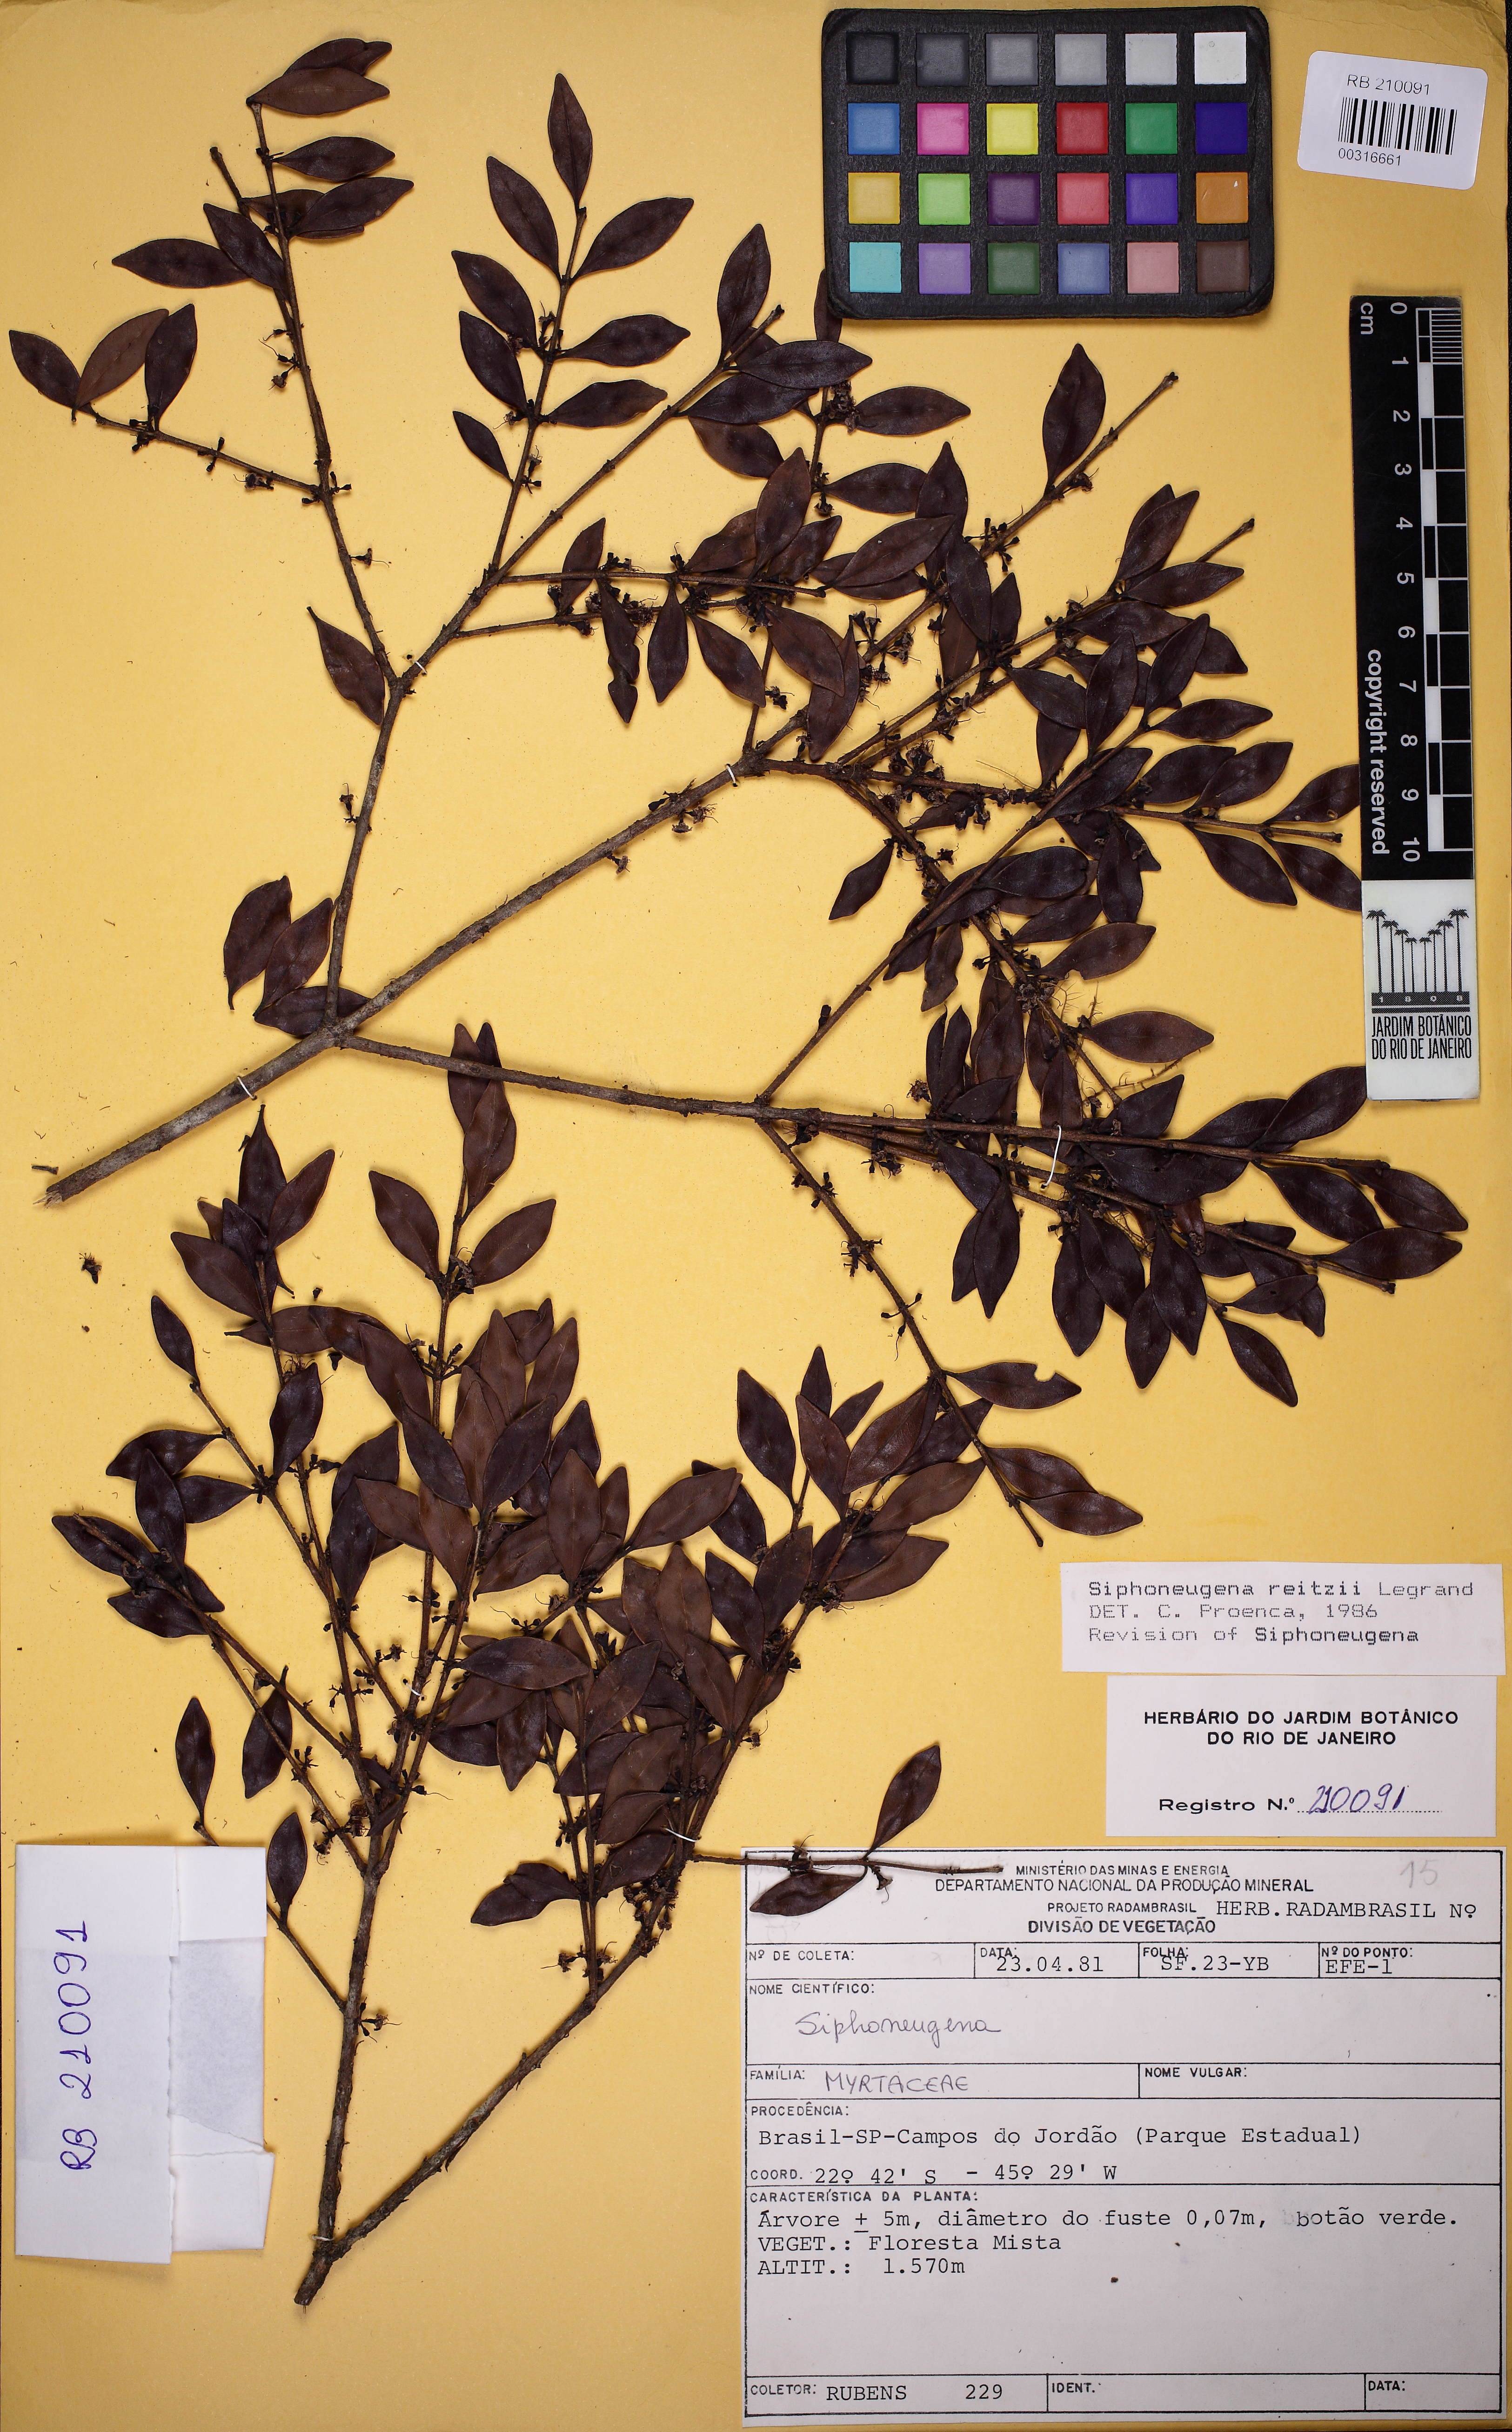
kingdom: Plantae
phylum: Tracheophyta
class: Magnoliopsida
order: Myrtales
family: Myrtaceae
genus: Siphoneugena
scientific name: Siphoneugena reitzii
